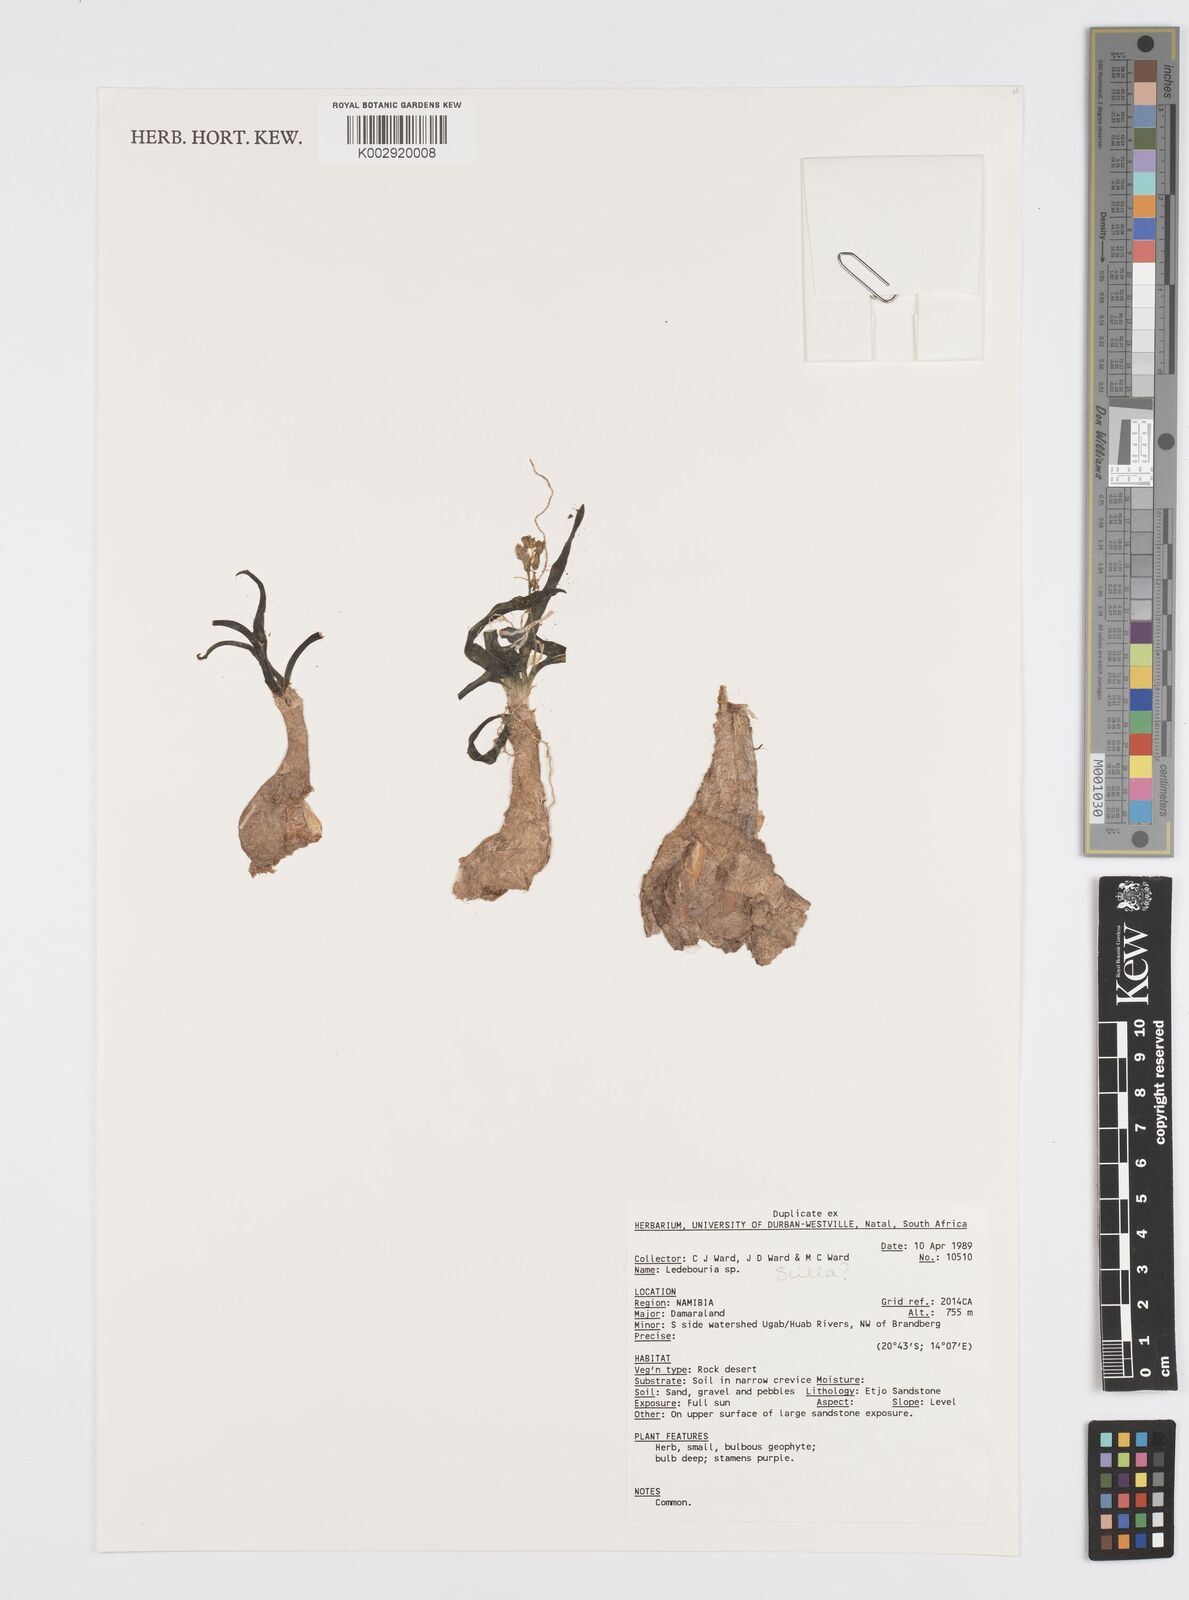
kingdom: Plantae
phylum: Tracheophyta
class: Liliopsida
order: Asparagales
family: Asparagaceae
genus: Ledebouria
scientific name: Ledebouria
